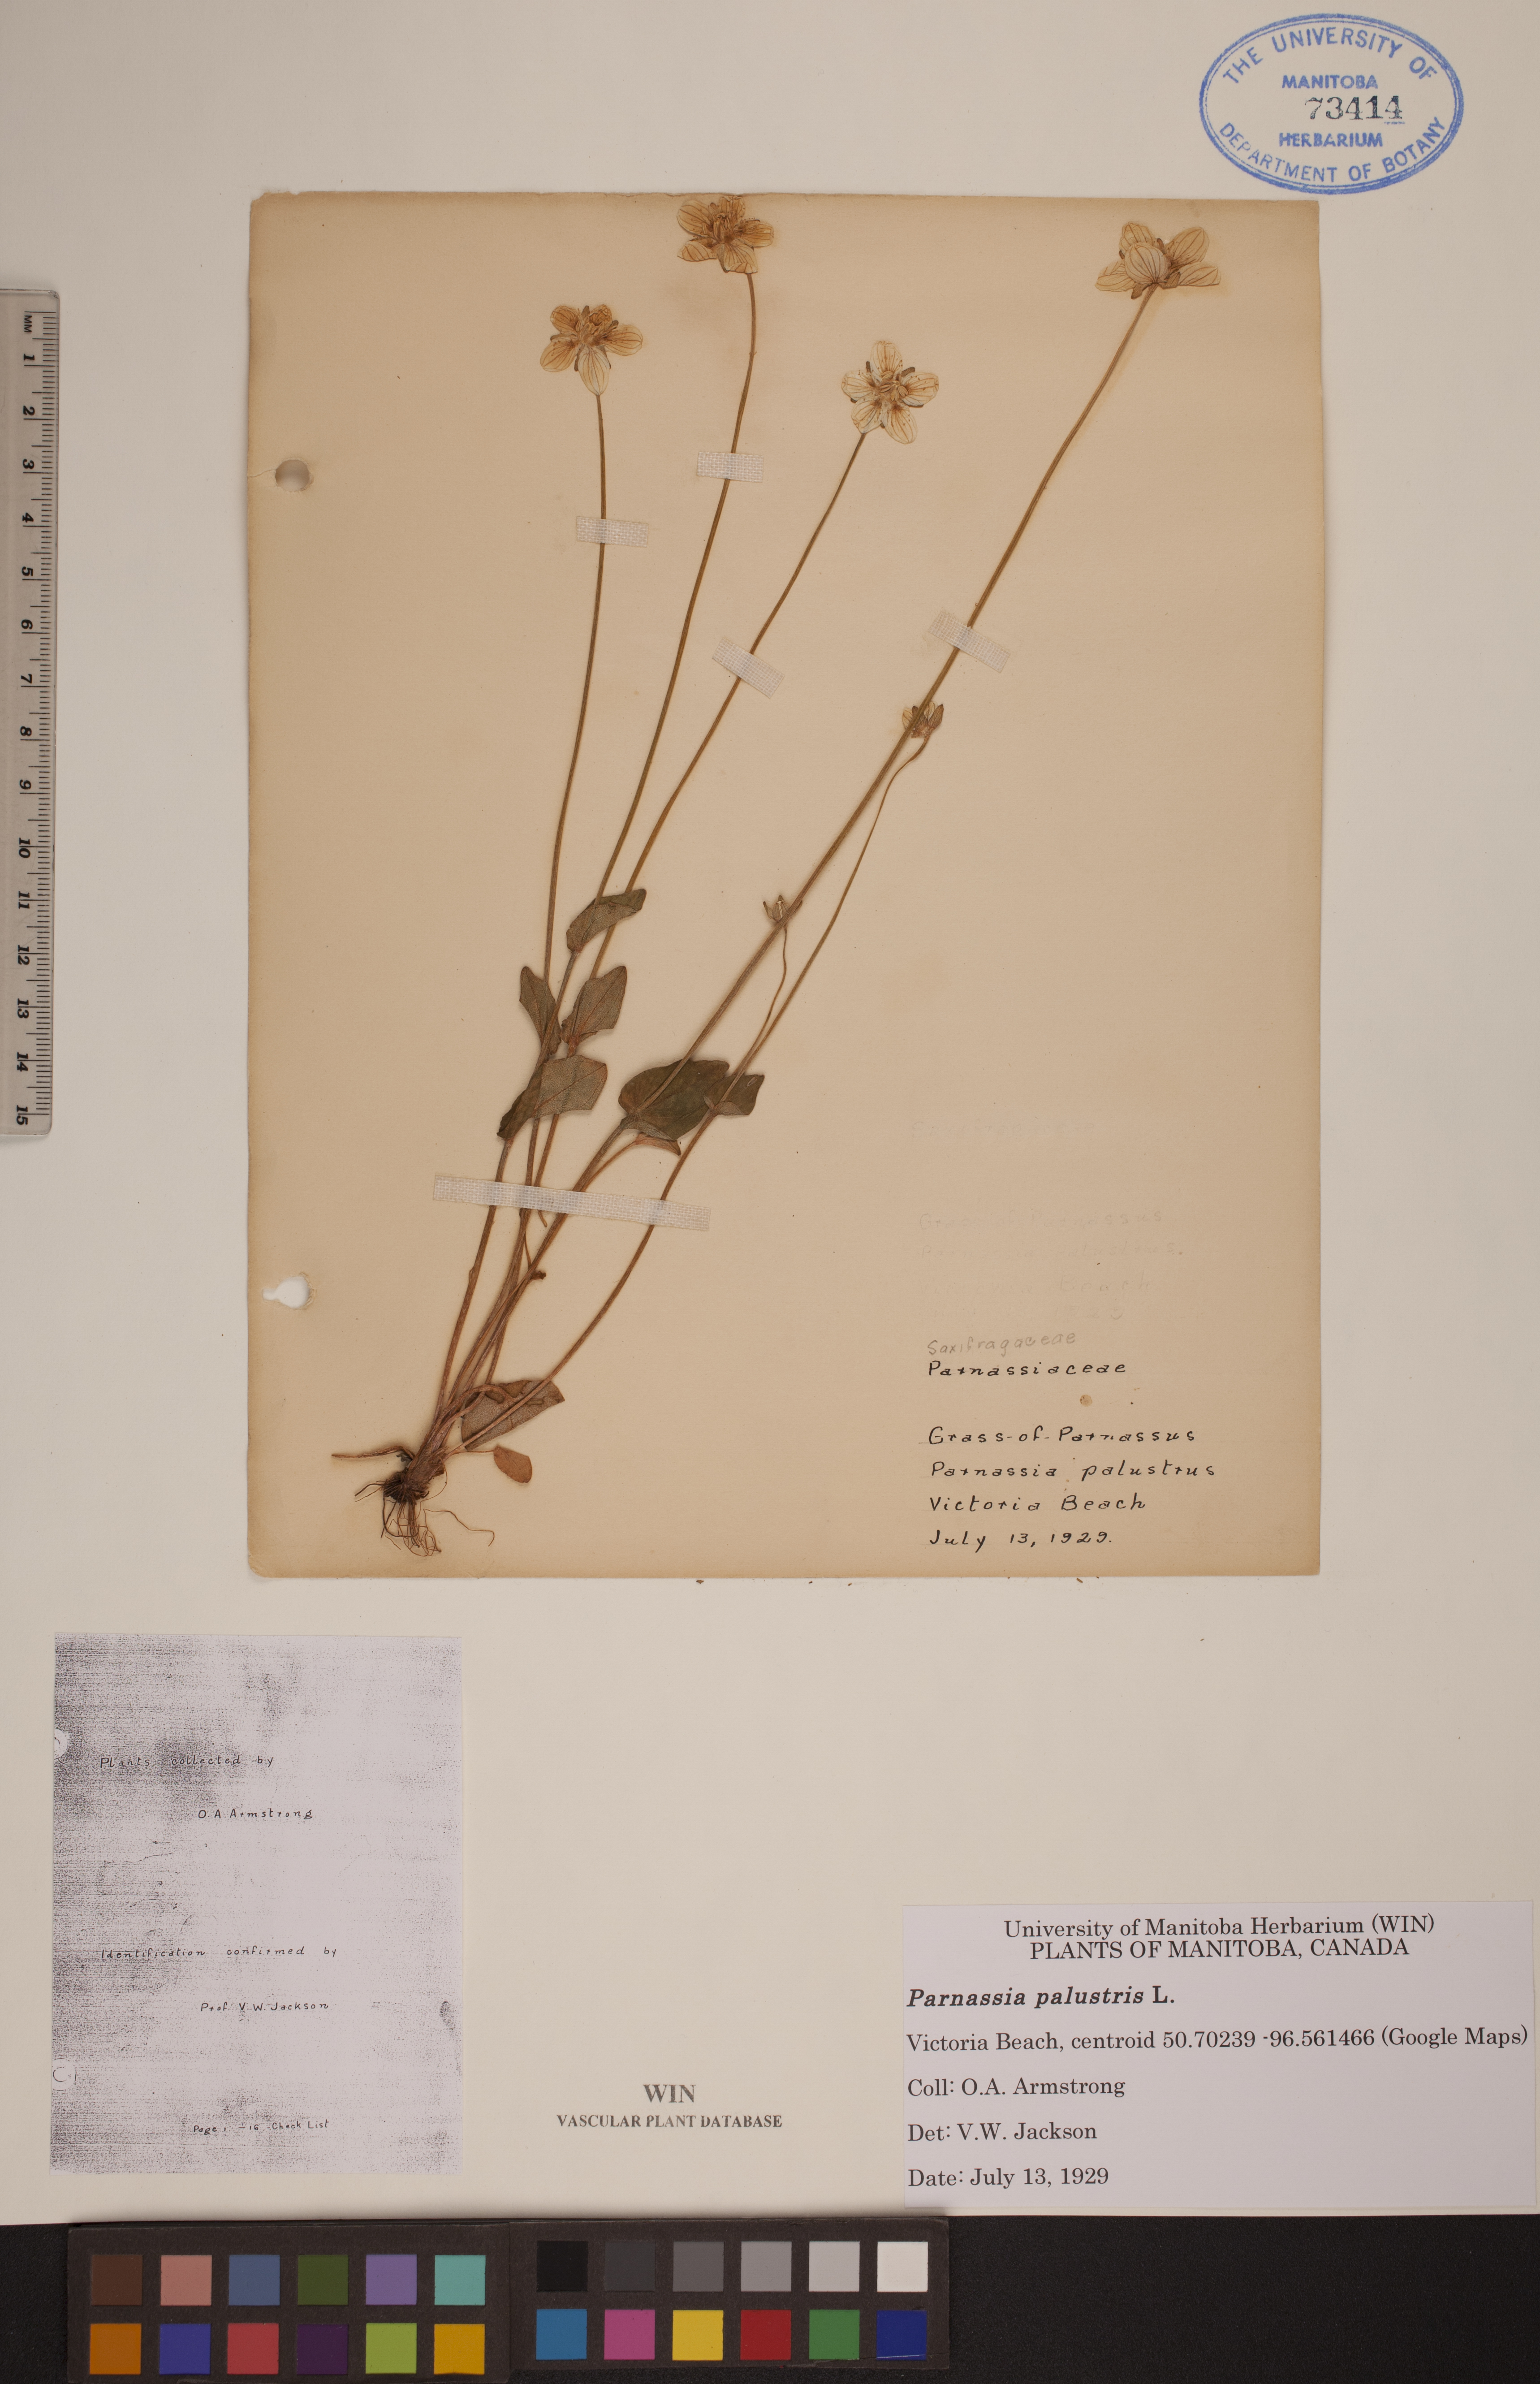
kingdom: Plantae
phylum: Tracheophyta
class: Magnoliopsida
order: Celastrales
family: Parnassiaceae
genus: Parnassia
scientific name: Parnassia palustris
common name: Grass-of-parnassus
